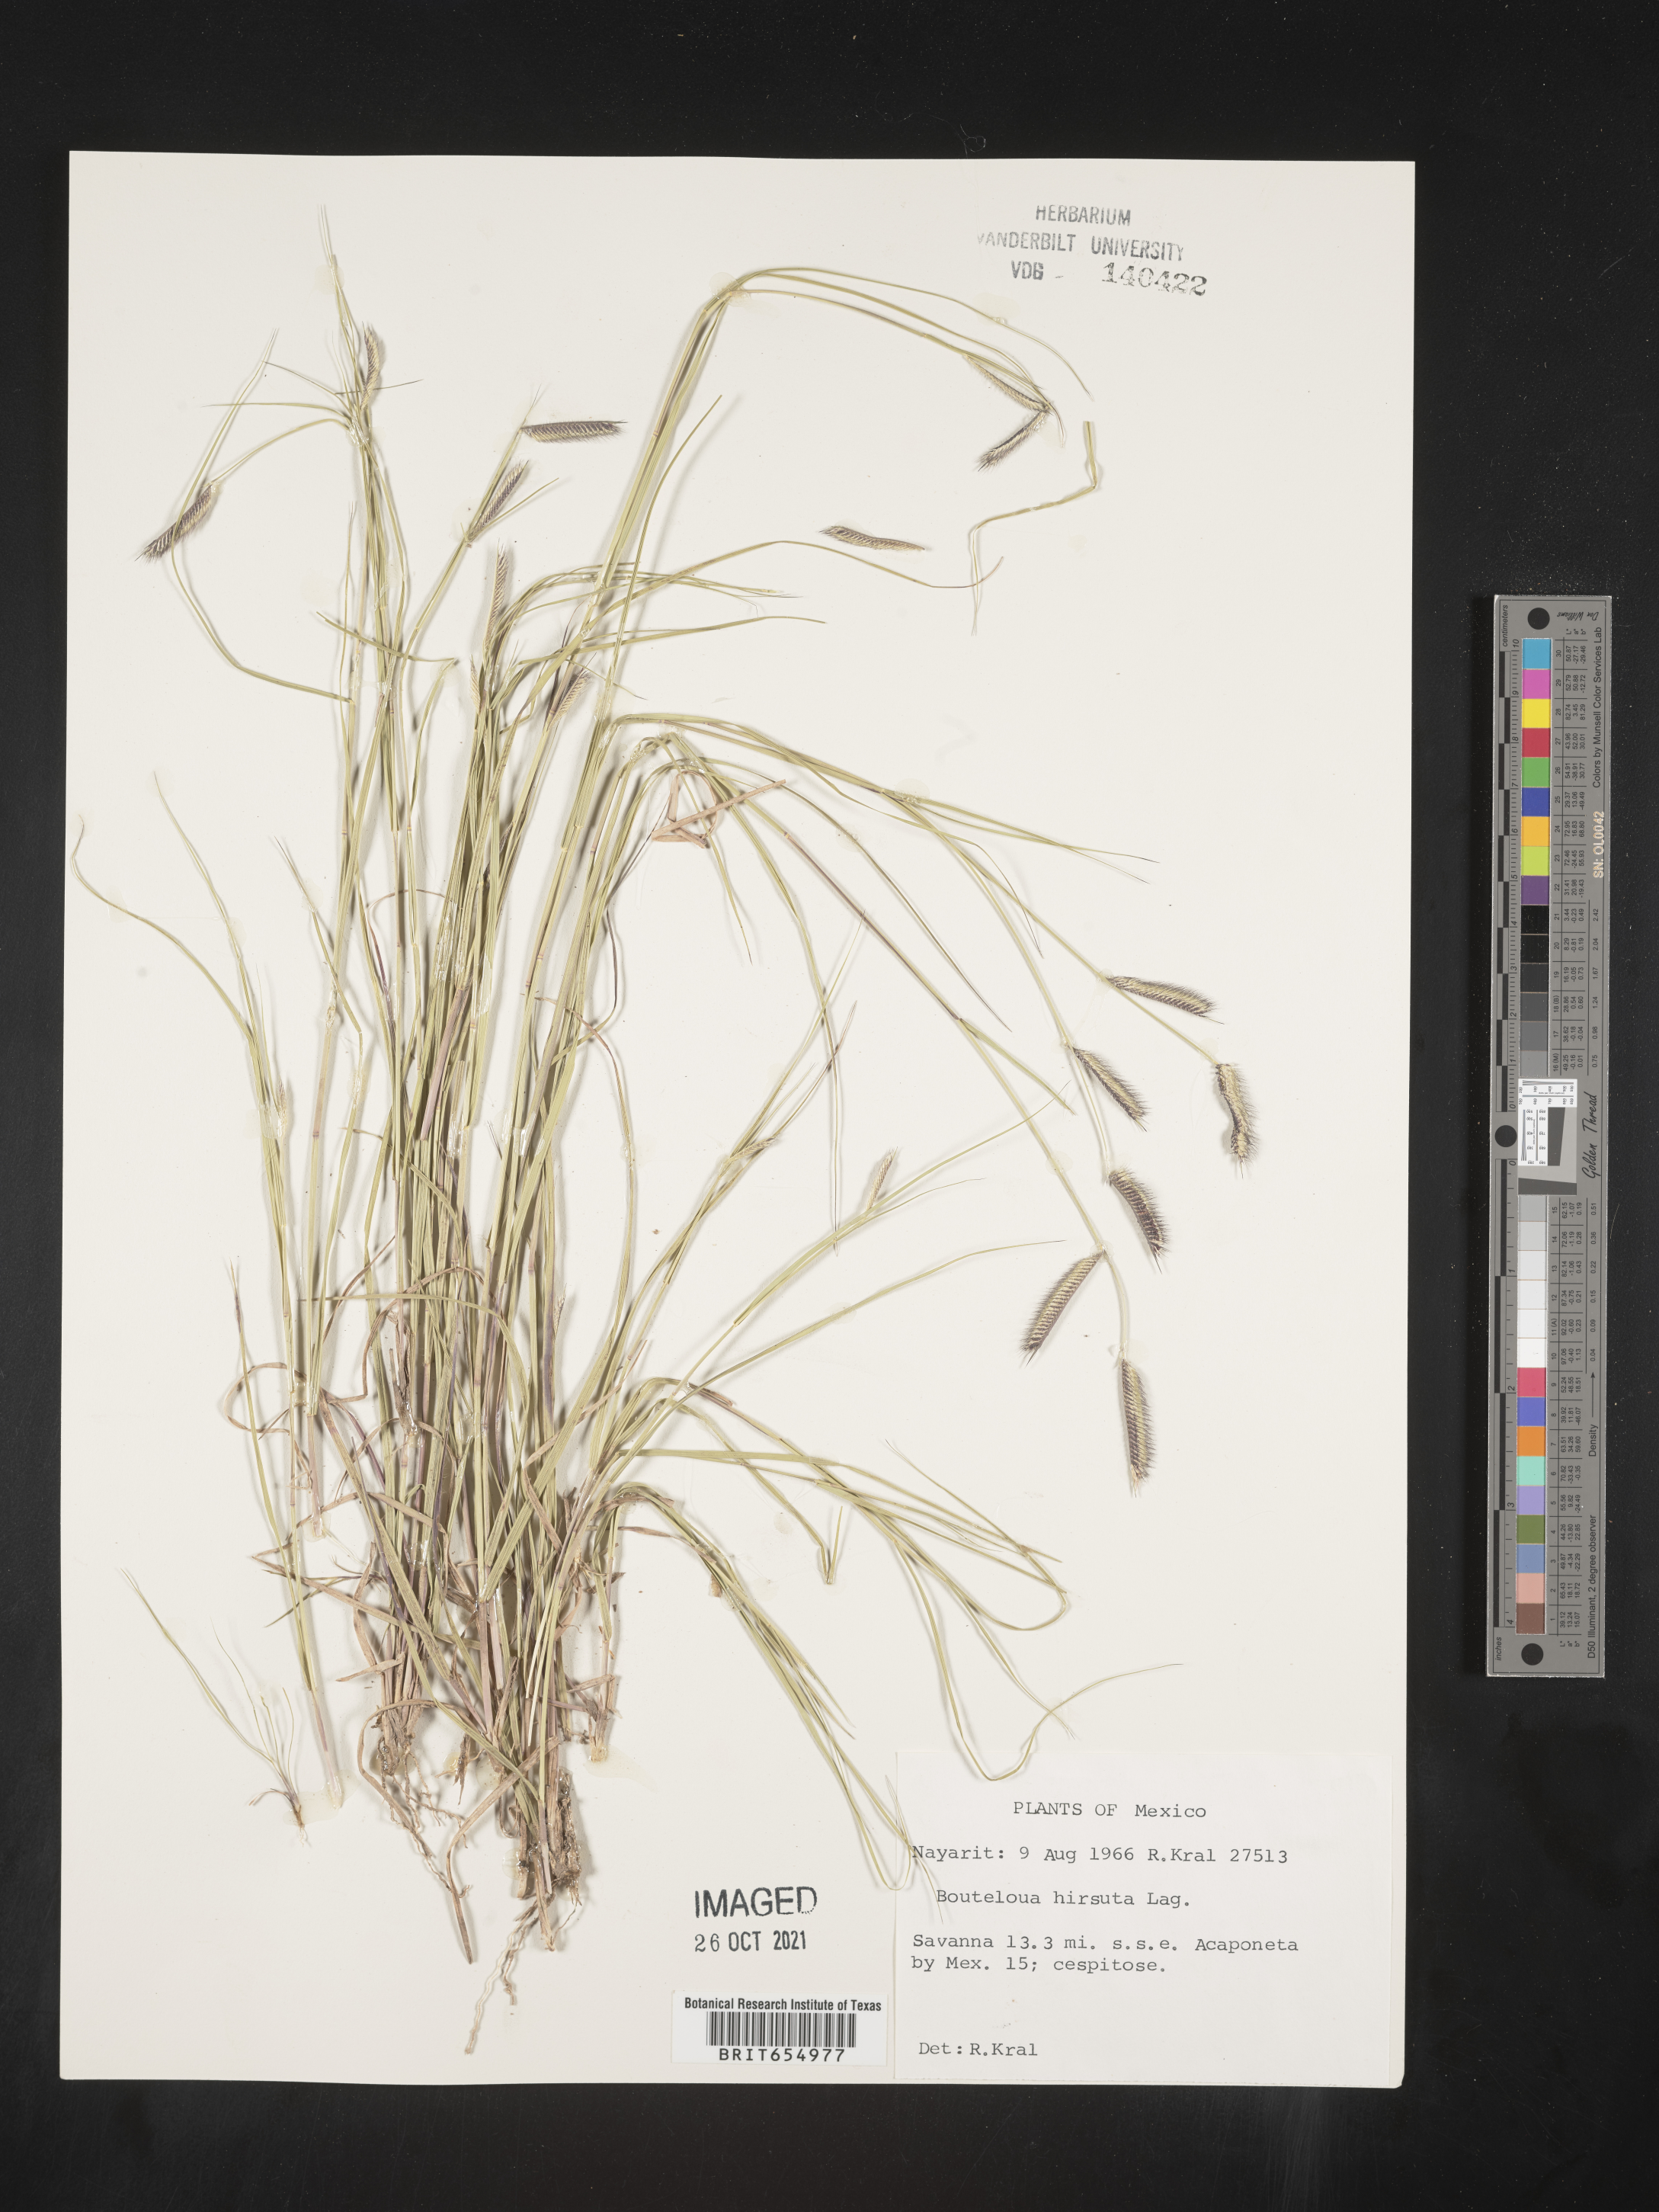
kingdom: Plantae
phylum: Tracheophyta
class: Liliopsida
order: Poales
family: Poaceae
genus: Bouteloua
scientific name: Bouteloua
